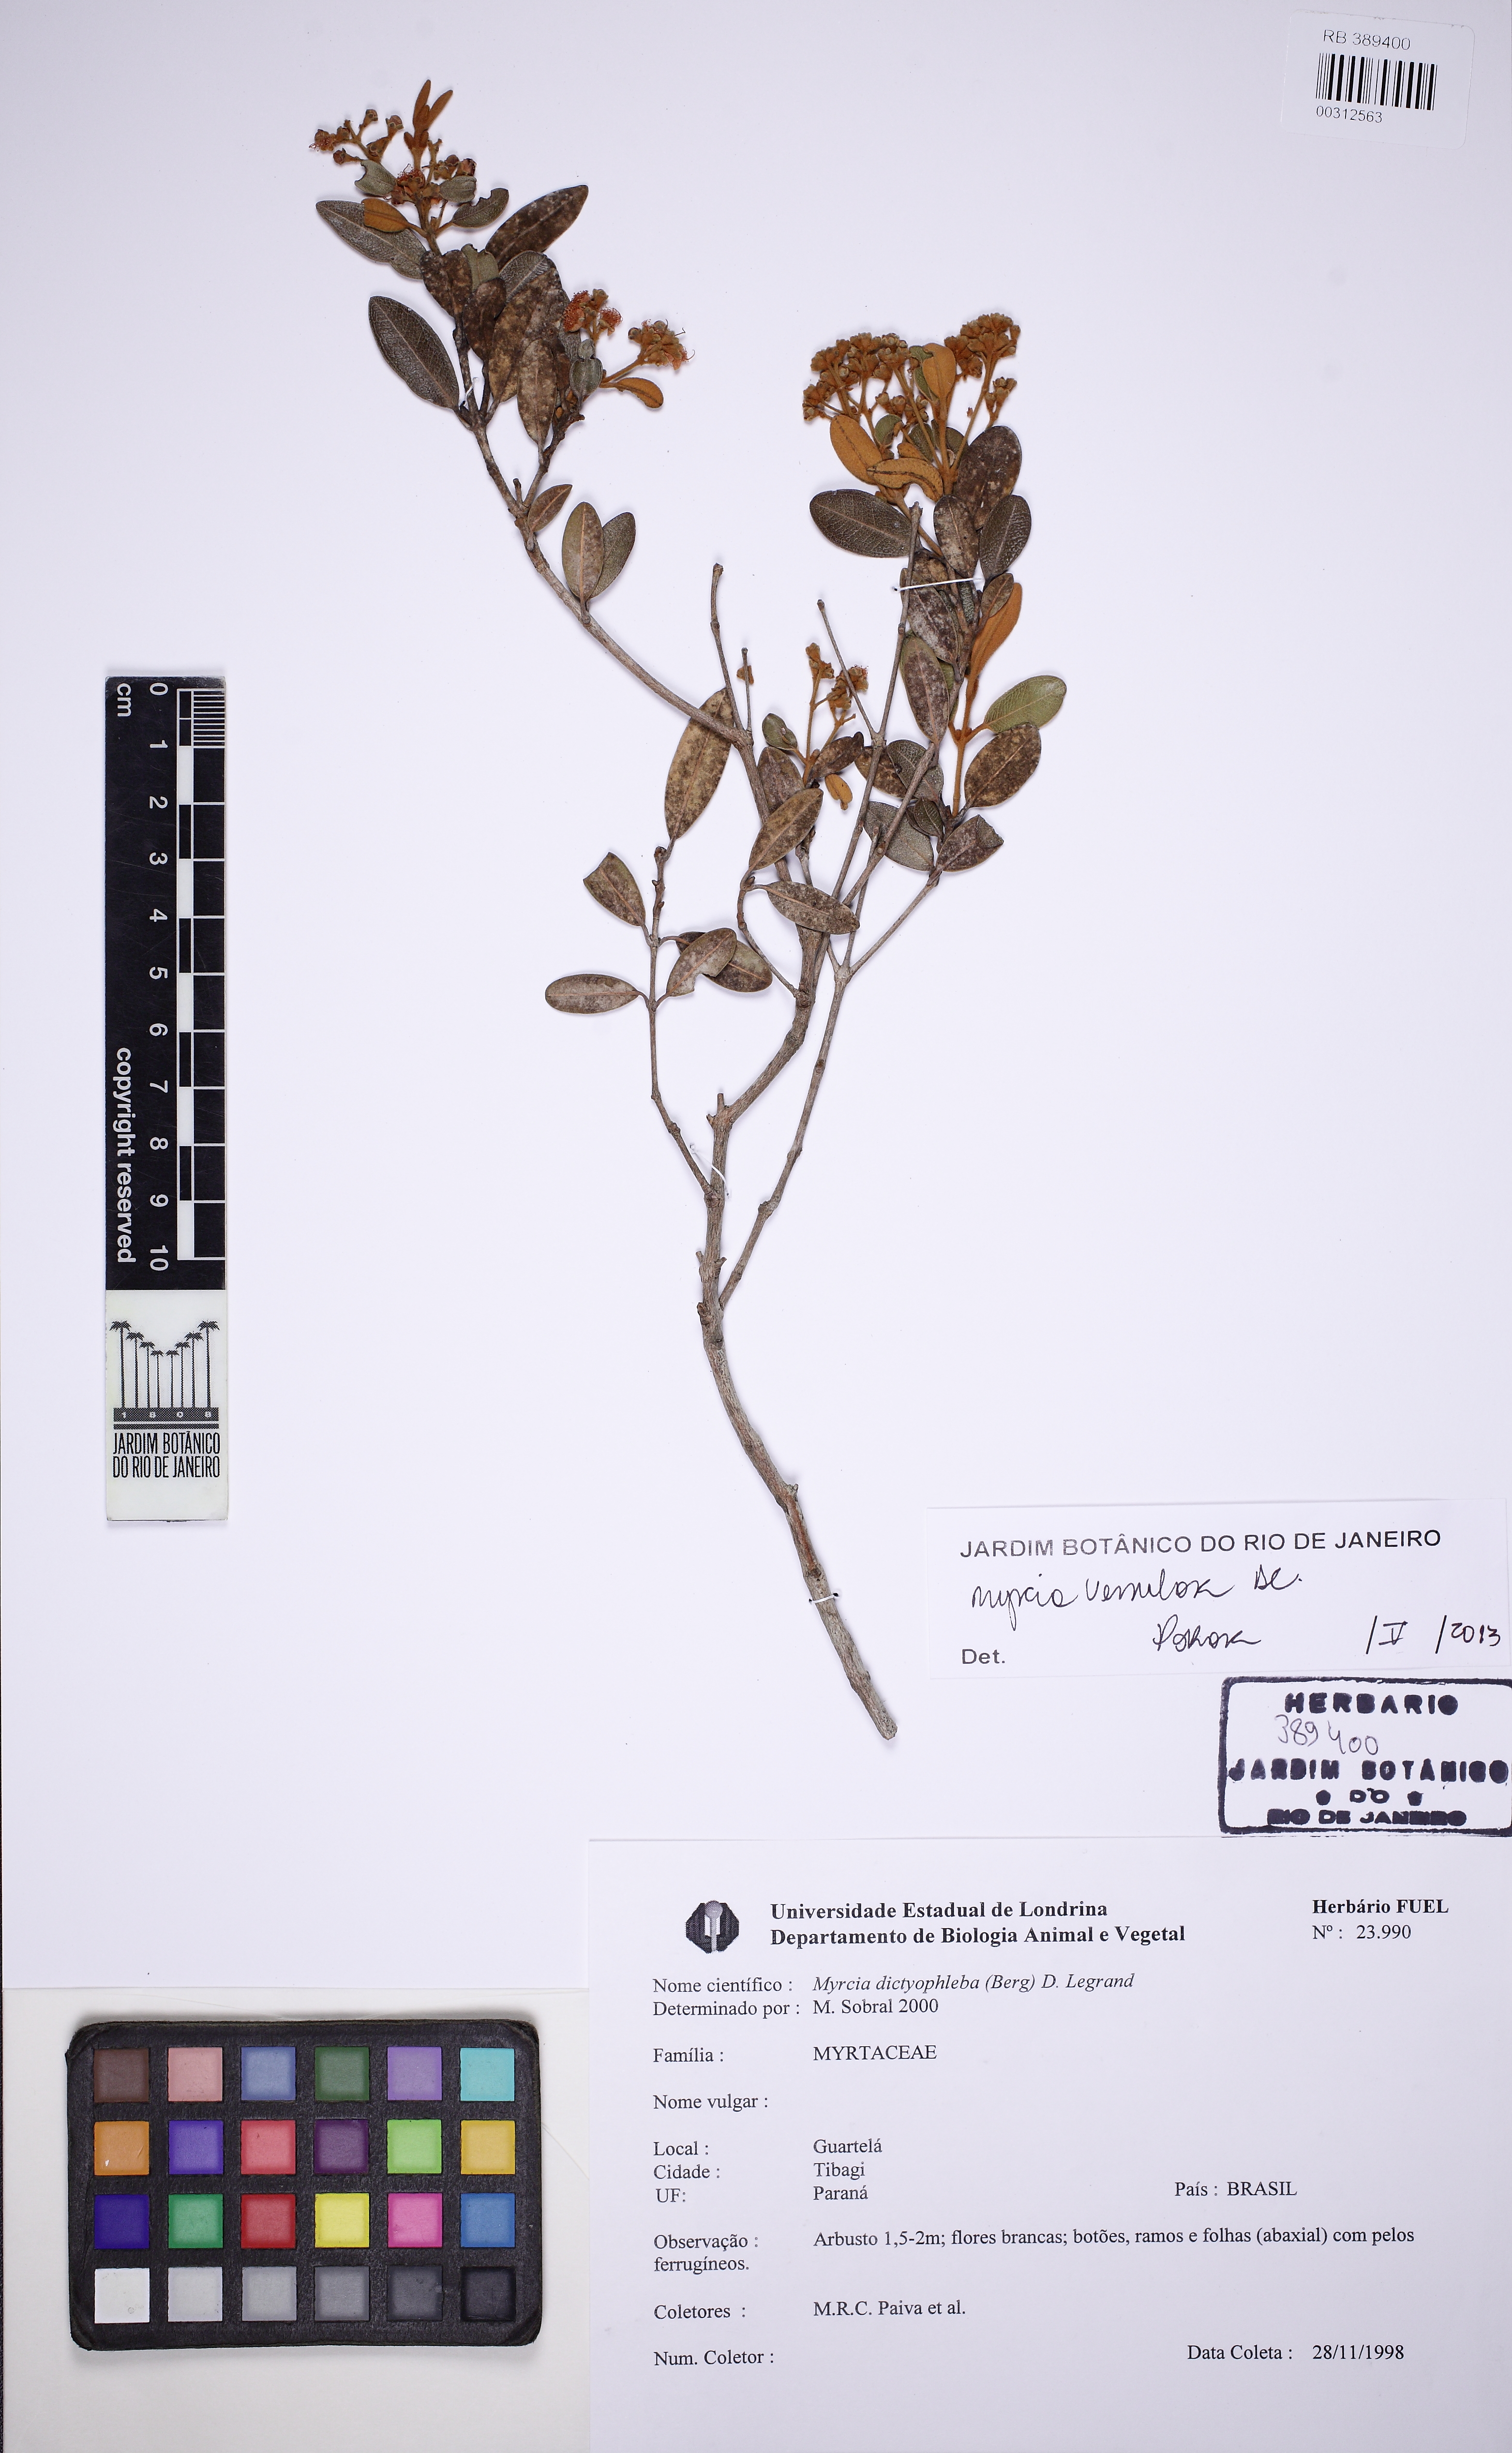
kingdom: Plantae
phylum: Tracheophyta
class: Magnoliopsida
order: Myrtales
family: Myrtaceae
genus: Myrcia
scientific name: Myrcia venulosa
